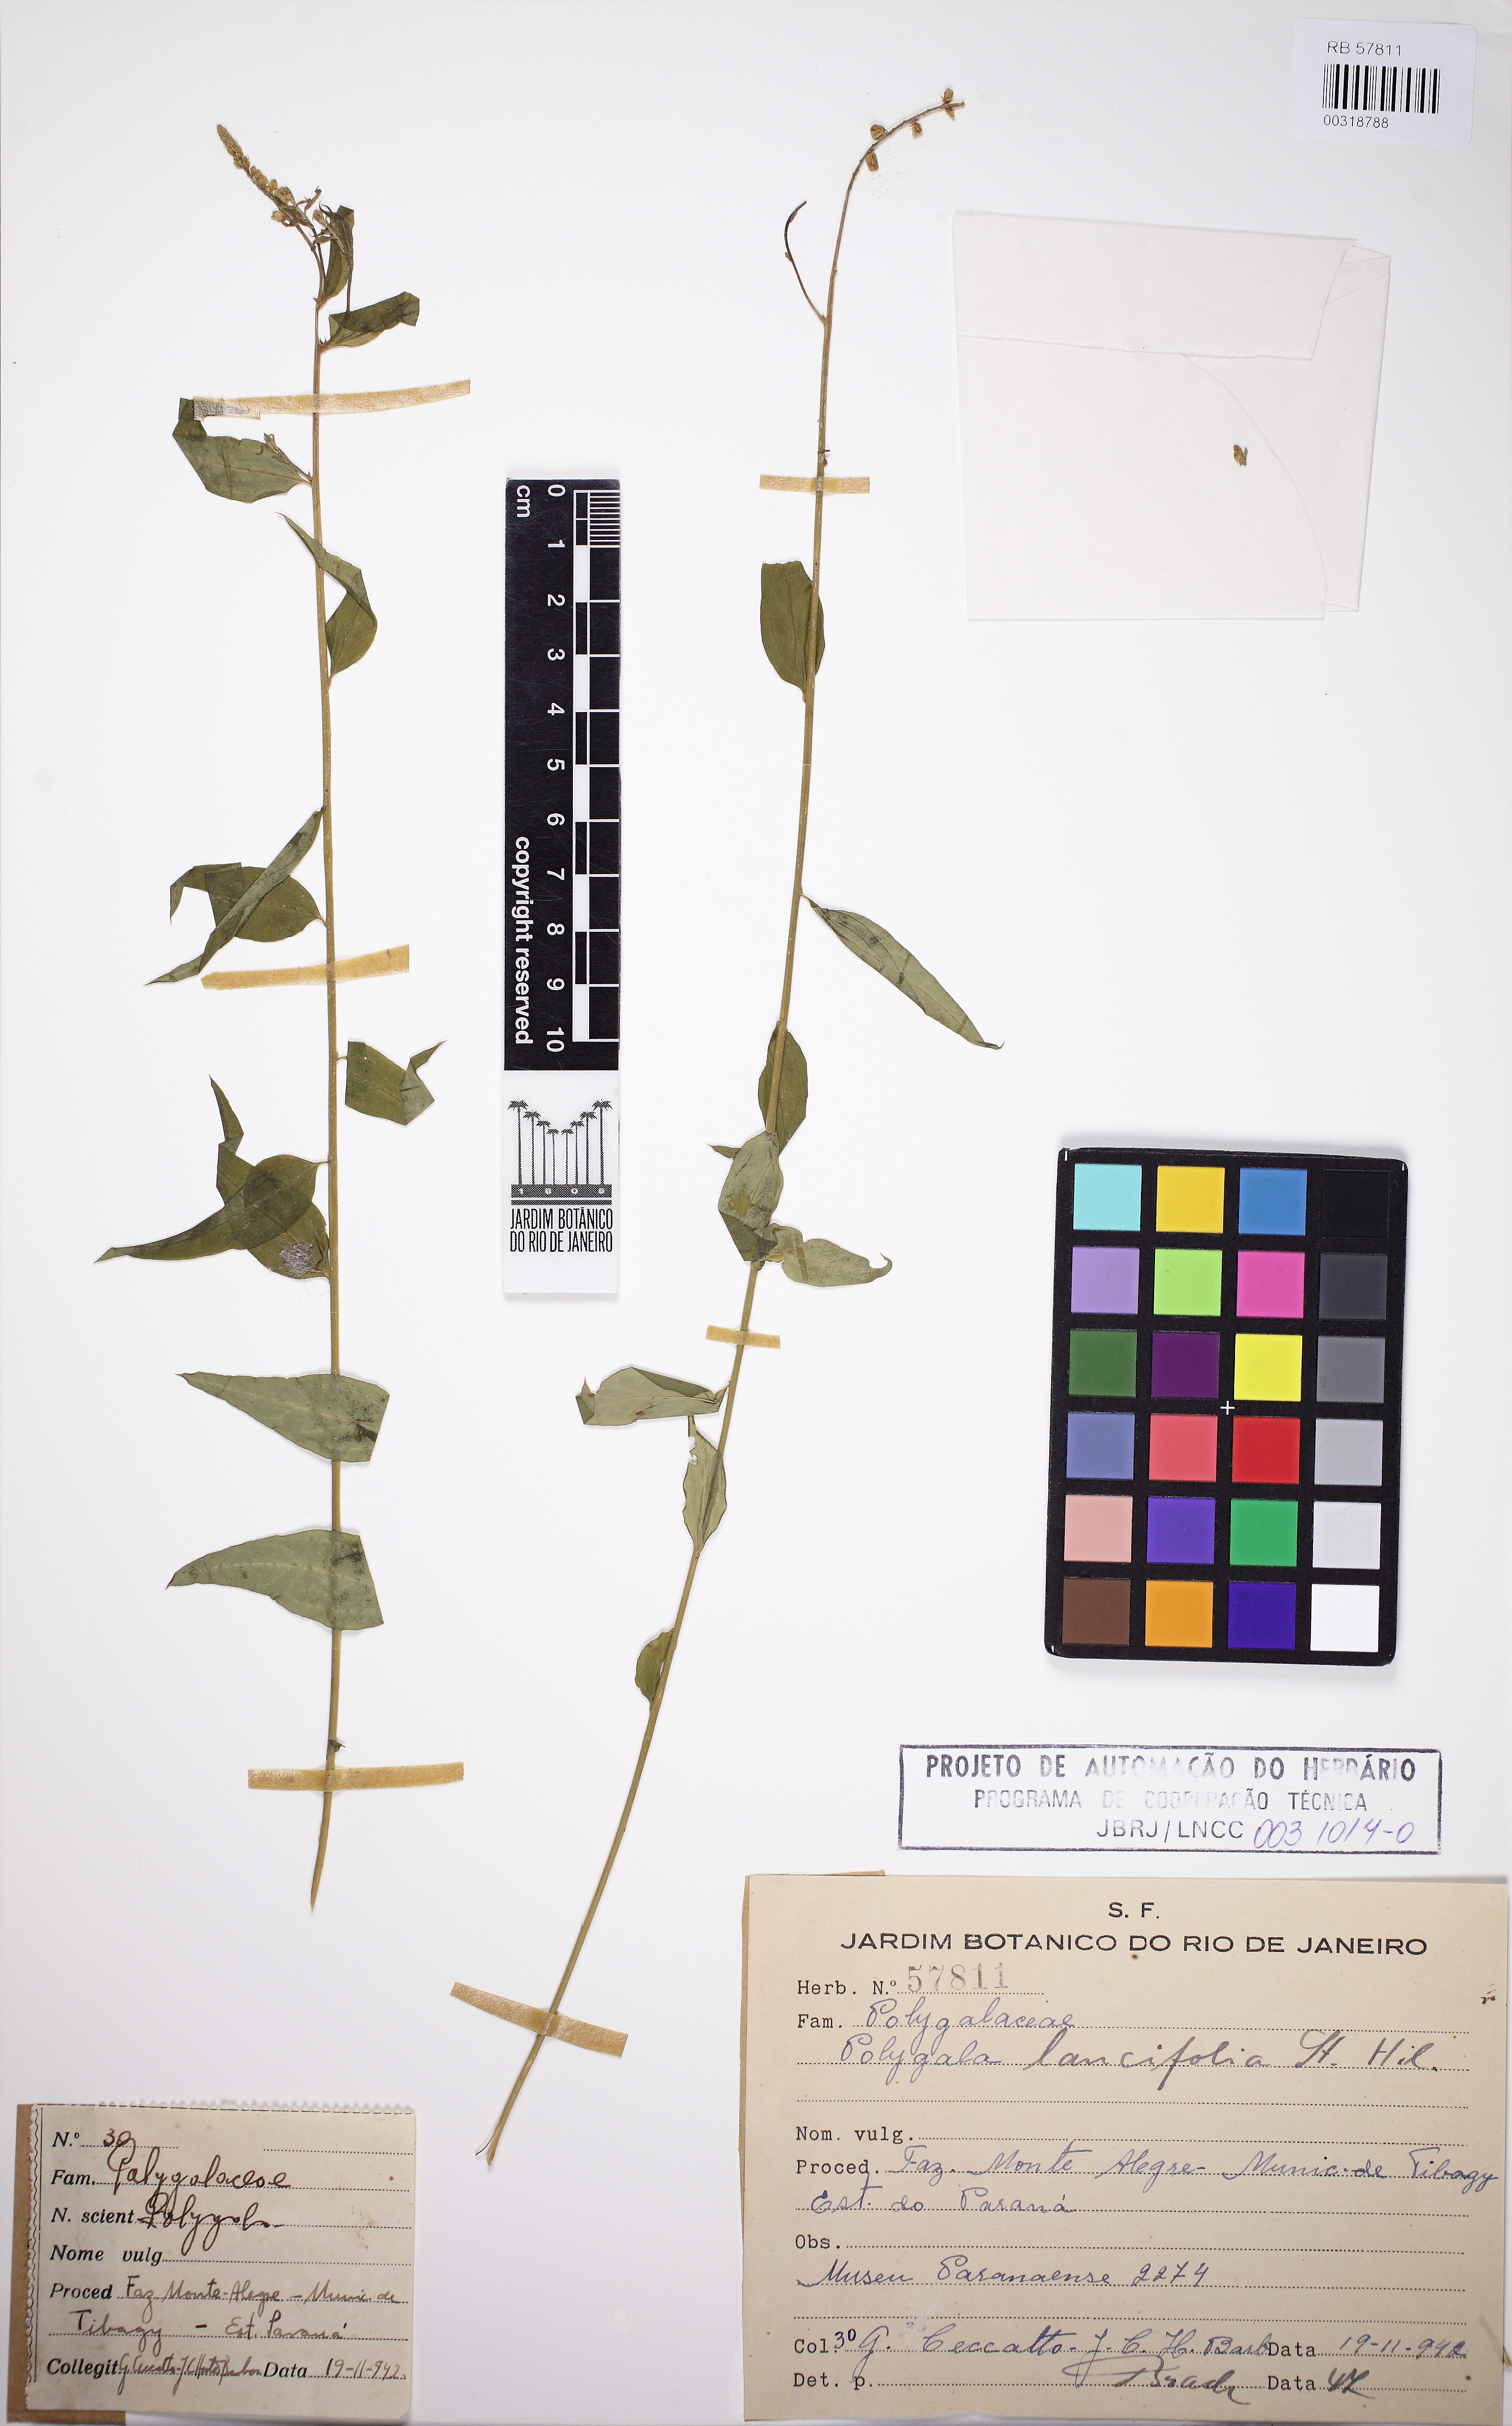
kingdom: Plantae
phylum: Tracheophyta
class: Magnoliopsida
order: Fabales
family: Polygalaceae
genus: Polygala
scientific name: Polygala lancifolia
